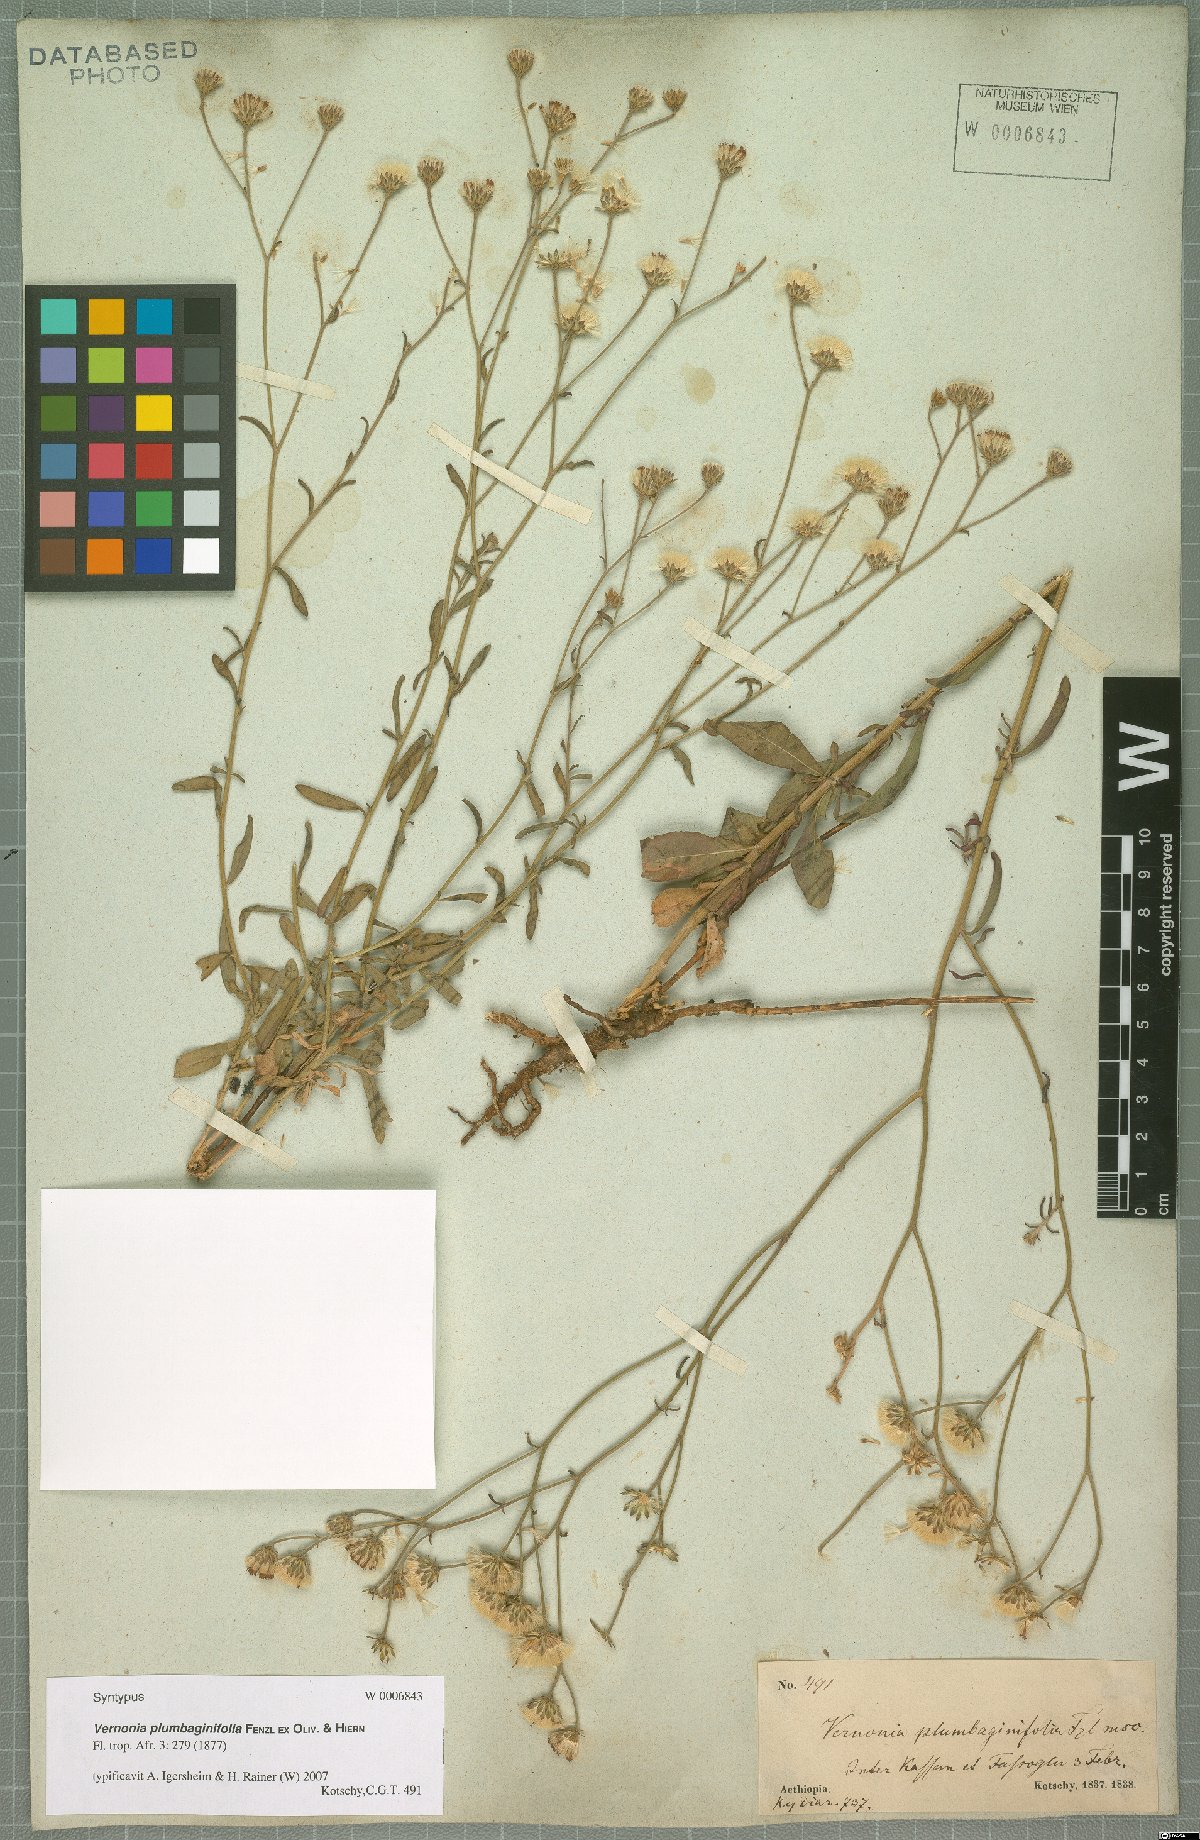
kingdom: Plantae
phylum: Tracheophyta
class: Magnoliopsida
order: Asterales
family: Asteraceae
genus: Vernonia
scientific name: Vernonia plumbaginifolia
